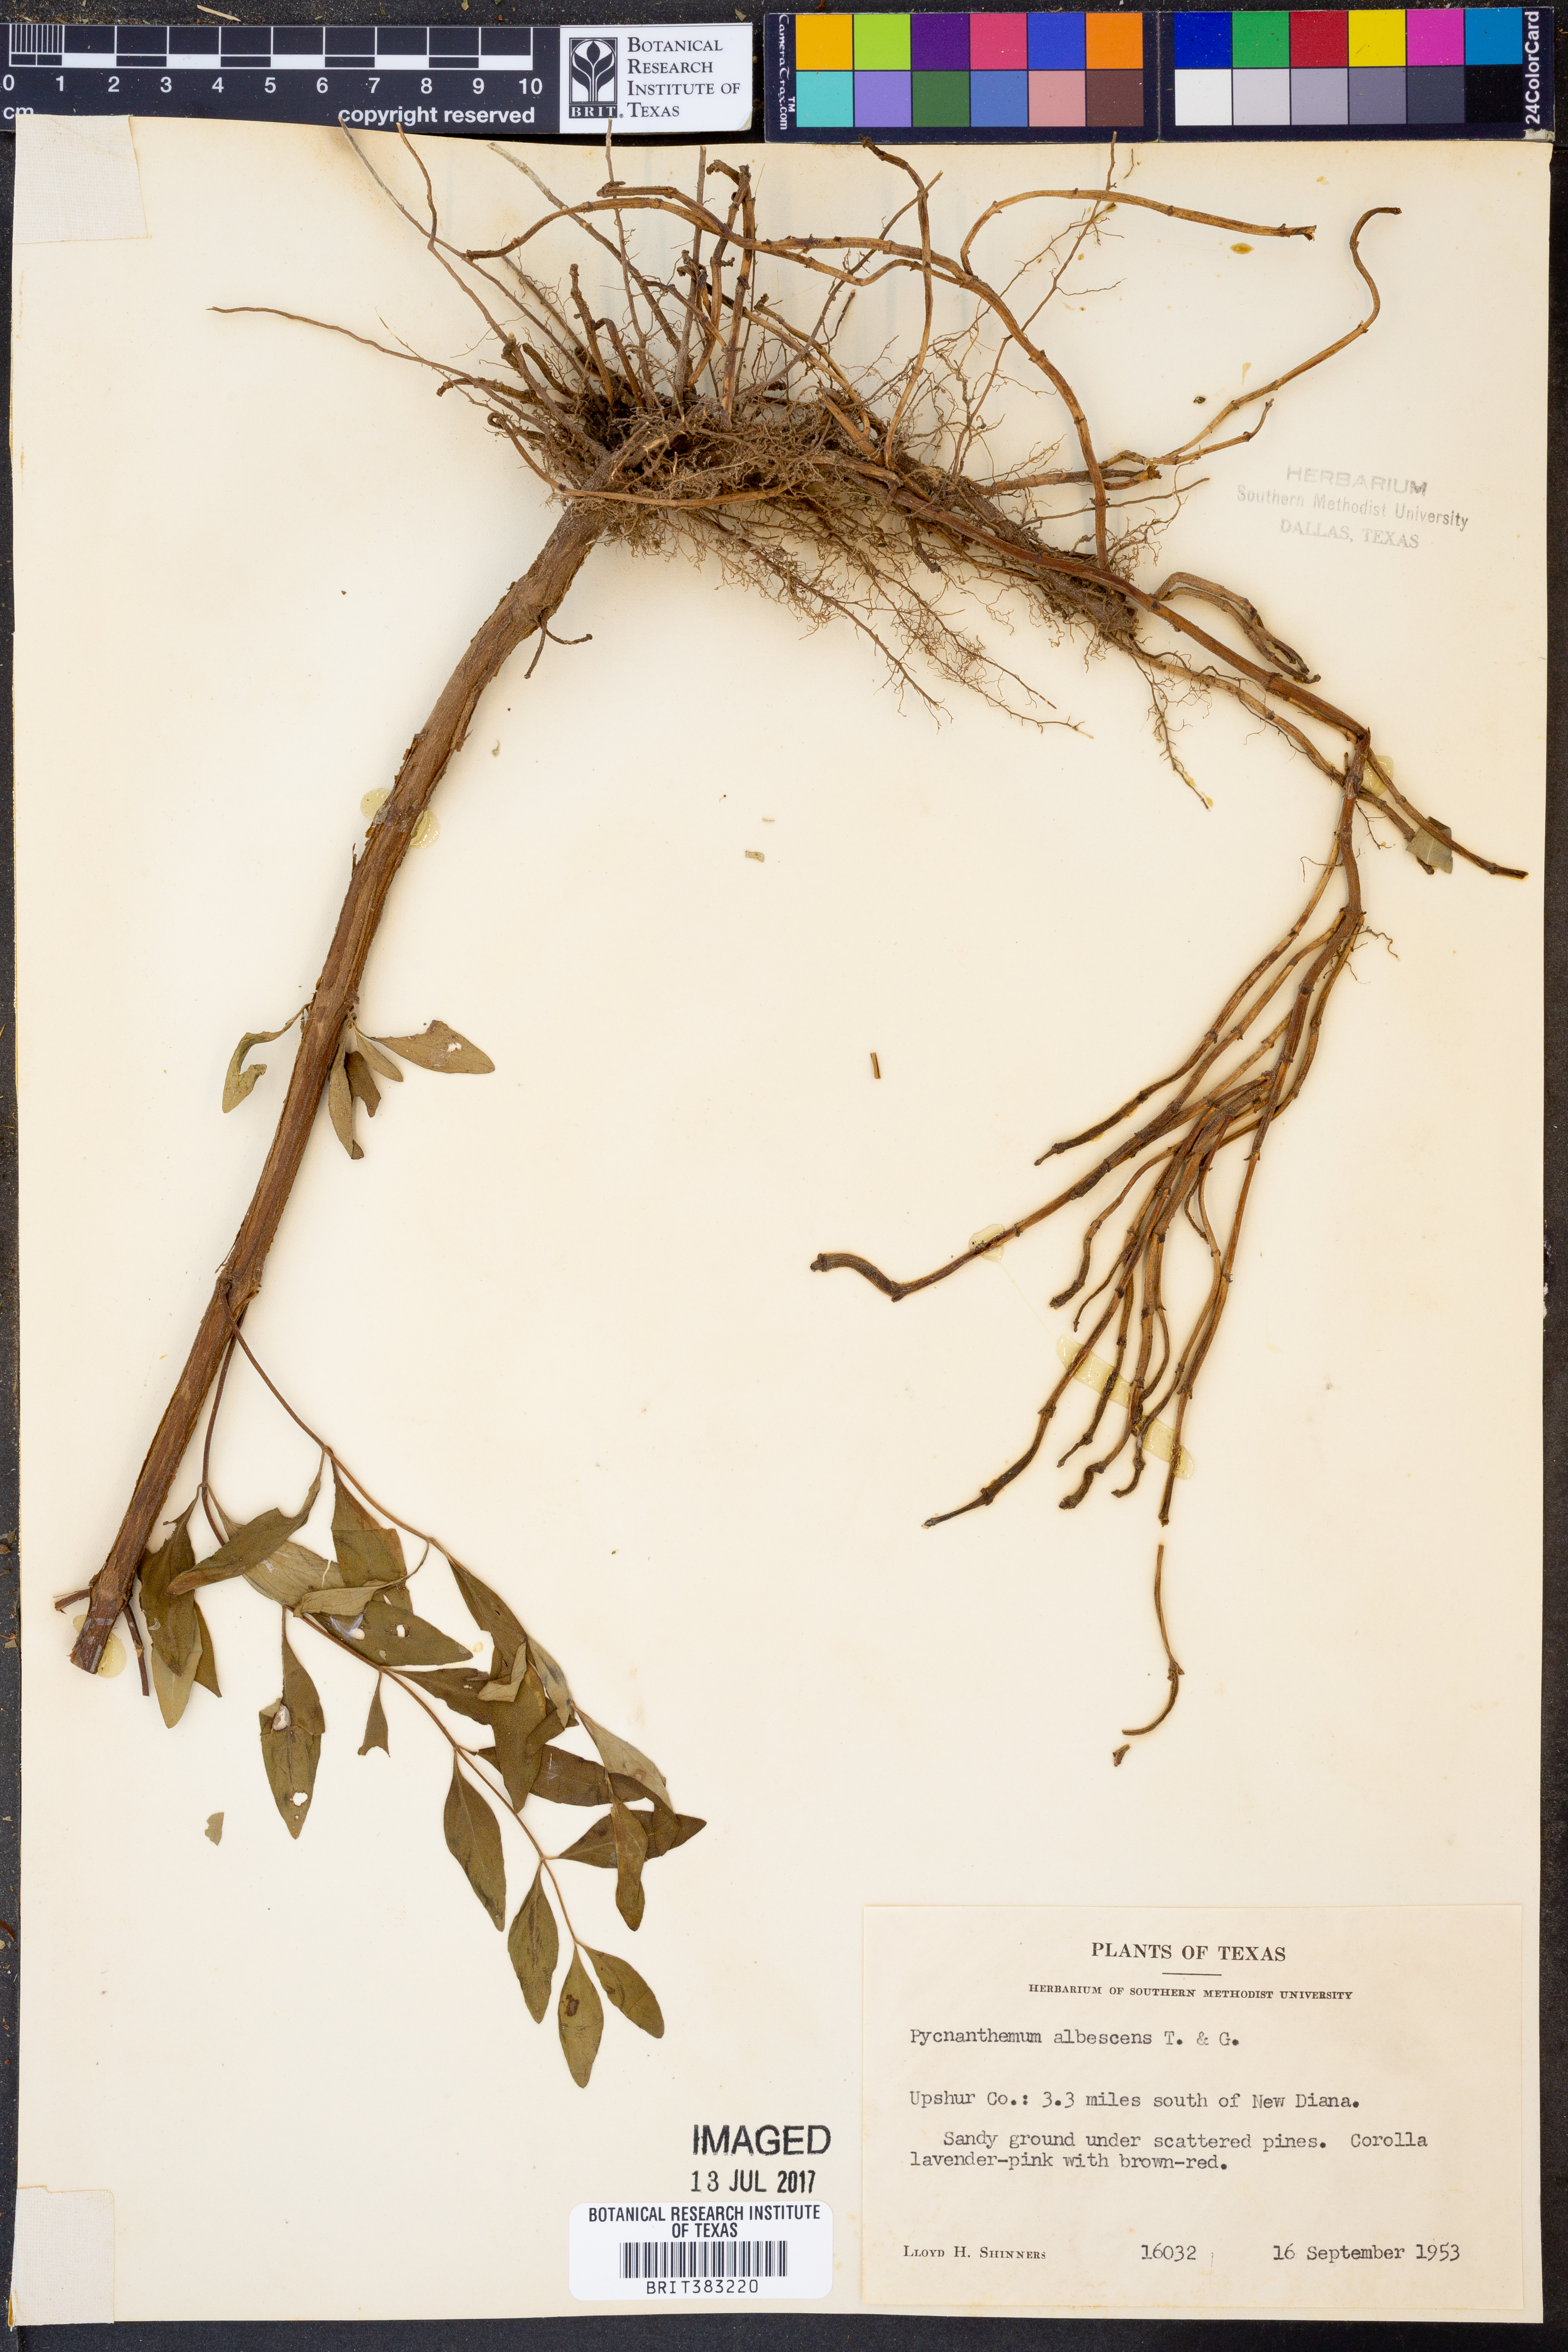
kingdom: Plantae
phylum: Tracheophyta
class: Magnoliopsida
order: Lamiales
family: Lamiaceae
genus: Pycnanthemum
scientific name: Pycnanthemum albescens
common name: White-leaf mountain-mint
